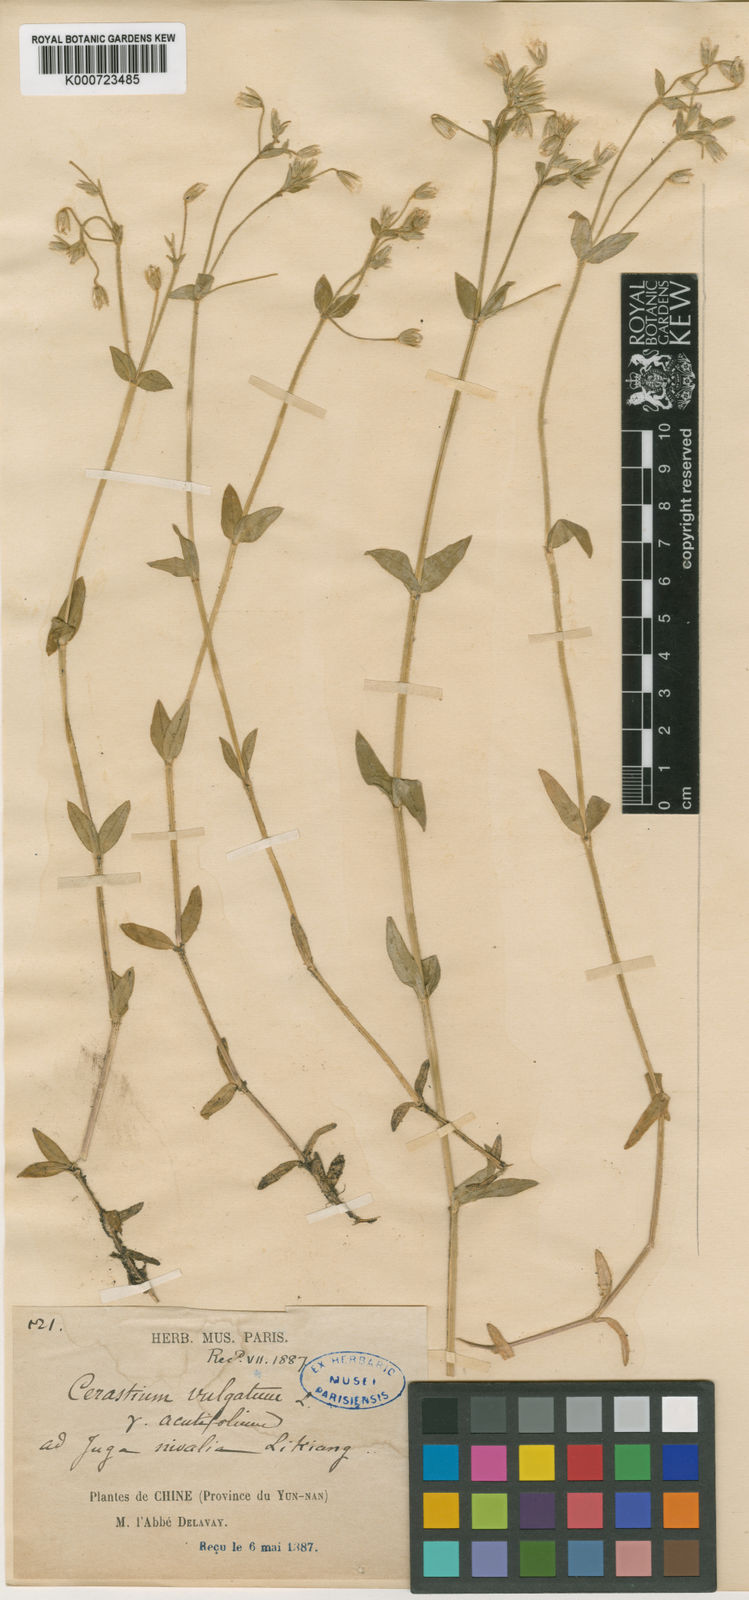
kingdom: Plantae
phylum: Tracheophyta
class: Magnoliopsida
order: Caryophyllales
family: Caryophyllaceae
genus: Cerastium
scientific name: Cerastium
